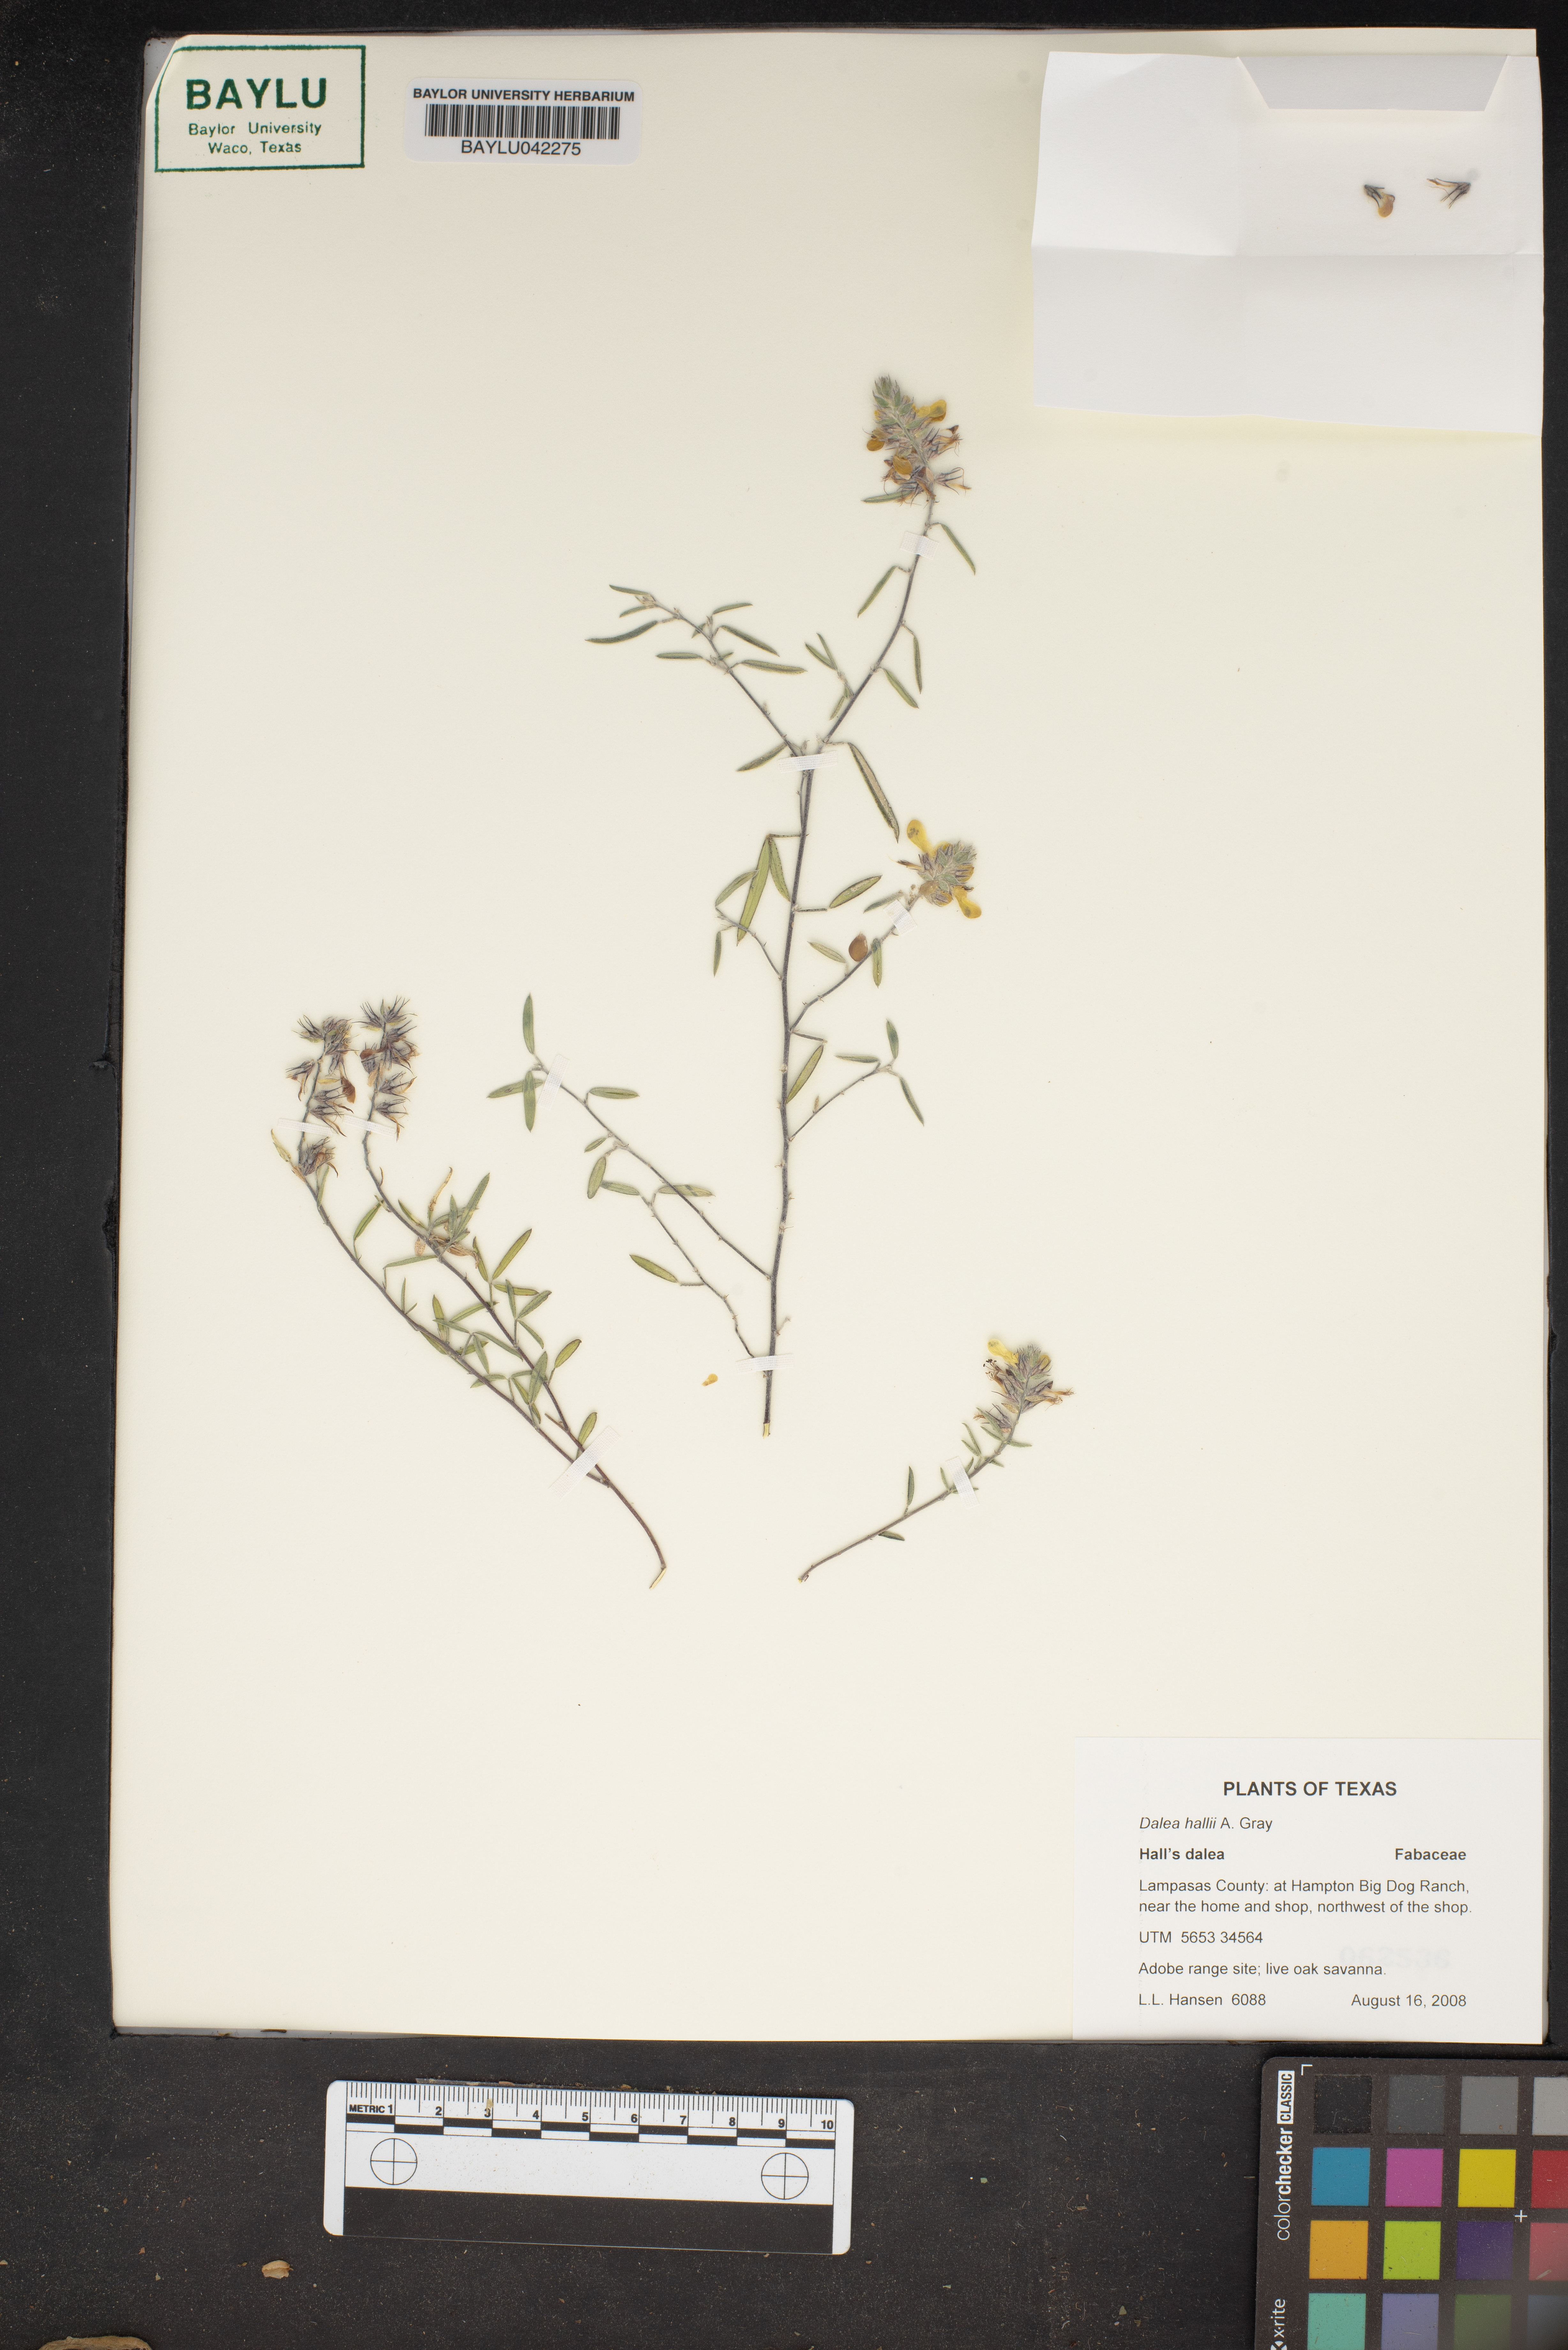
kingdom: Plantae
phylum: Tracheophyta
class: Magnoliopsida
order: Fabales
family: Fabaceae
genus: Dalea
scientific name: Dalea hallii
